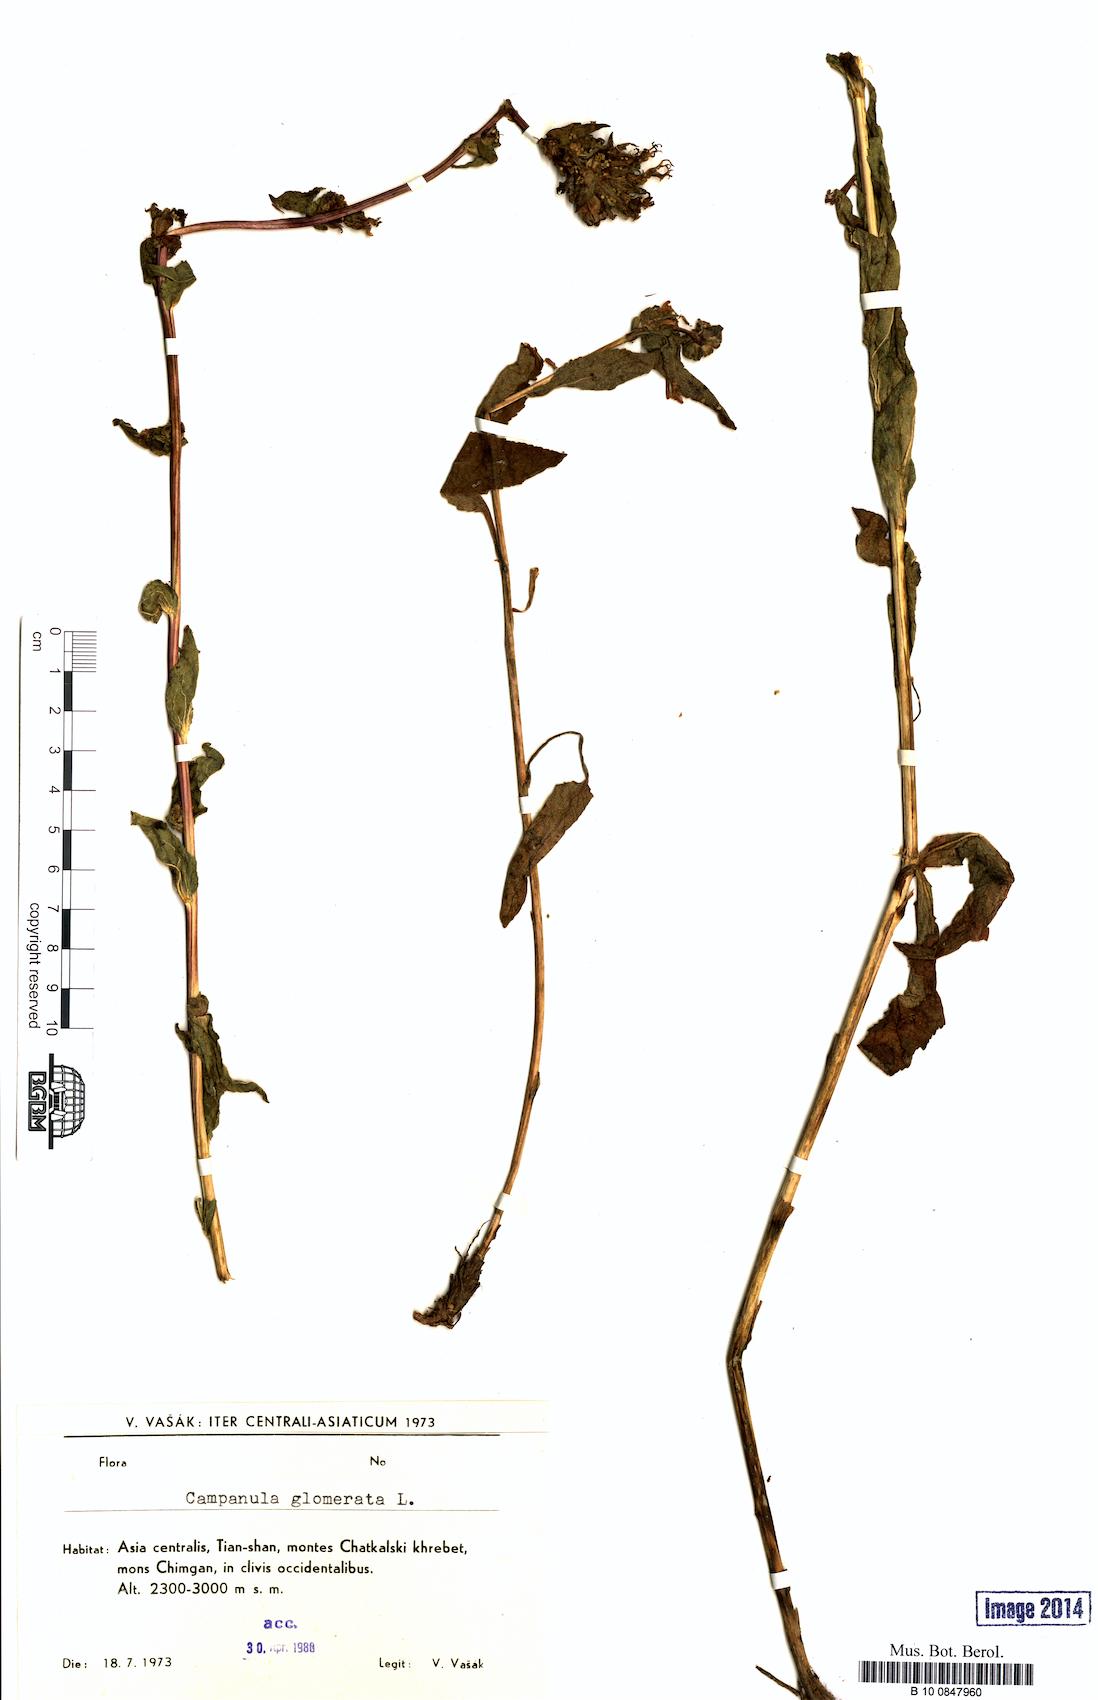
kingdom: Plantae
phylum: Tracheophyta
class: Magnoliopsida
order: Asterales
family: Campanulaceae
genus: Campanula
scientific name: Campanula glomerata
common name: Clustered bellflower
